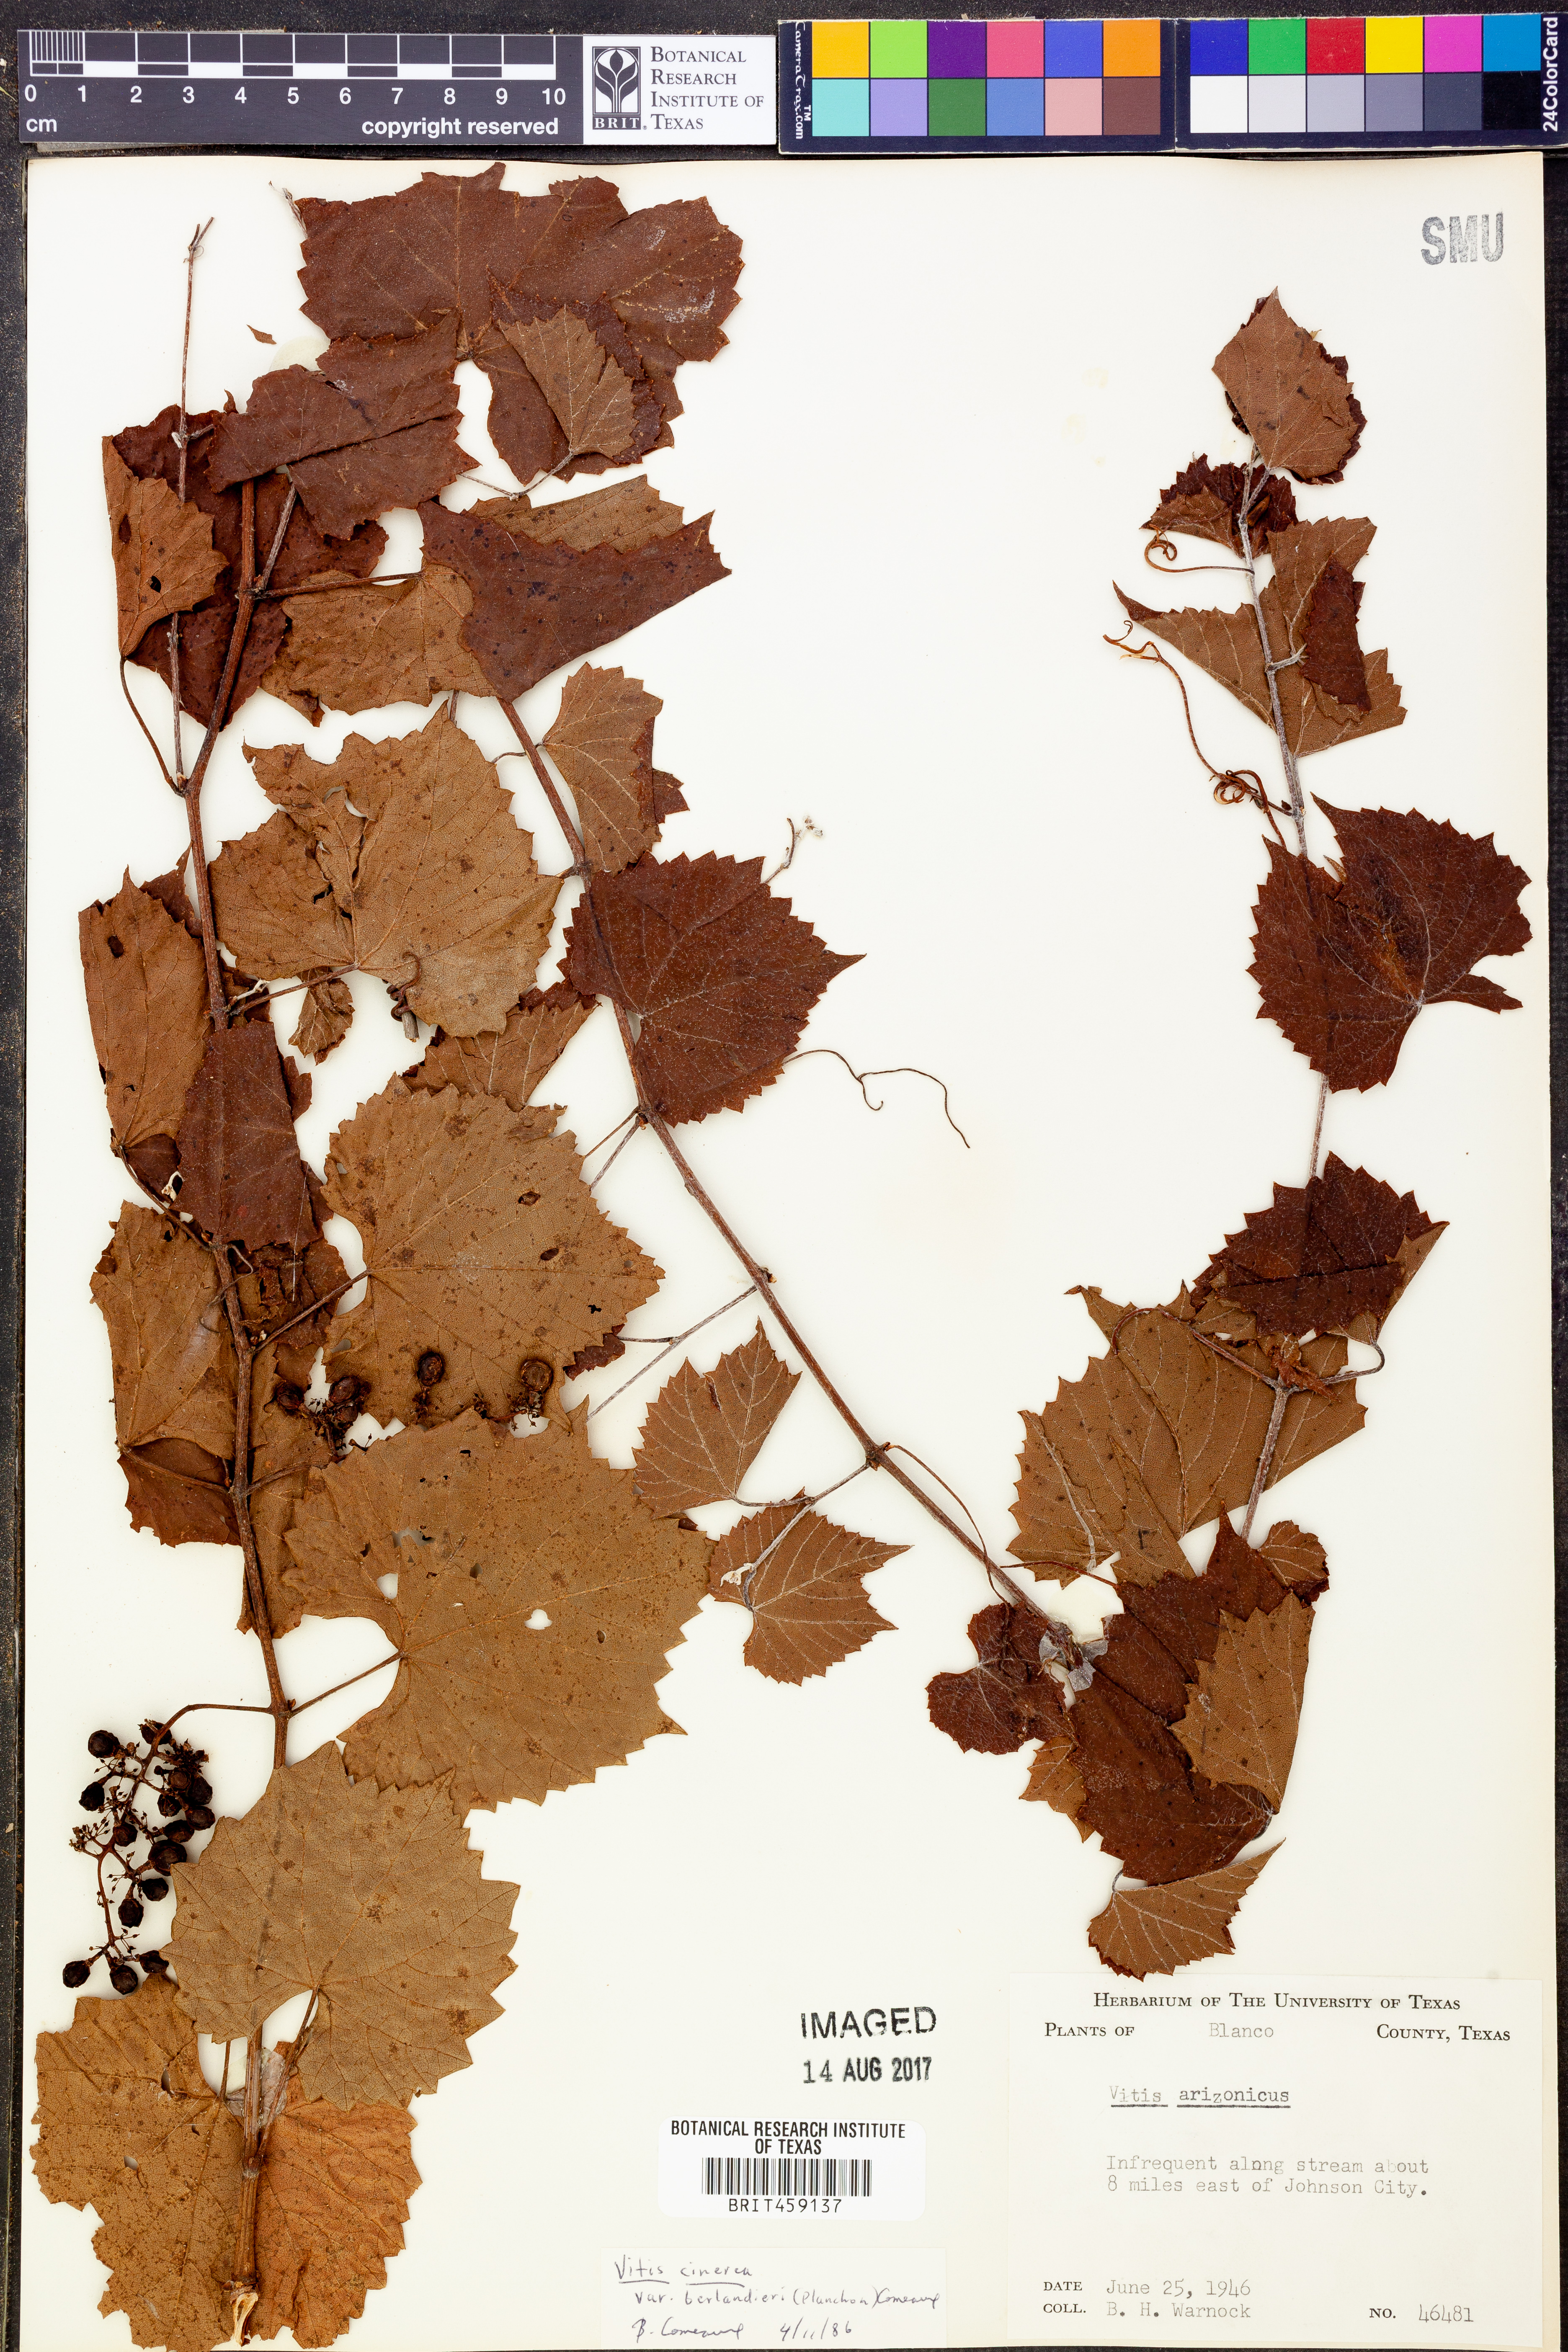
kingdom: Plantae
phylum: Tracheophyta
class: Magnoliopsida
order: Vitales
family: Vitaceae
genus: Vitis
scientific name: Vitis cinerea
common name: Ashy grape
